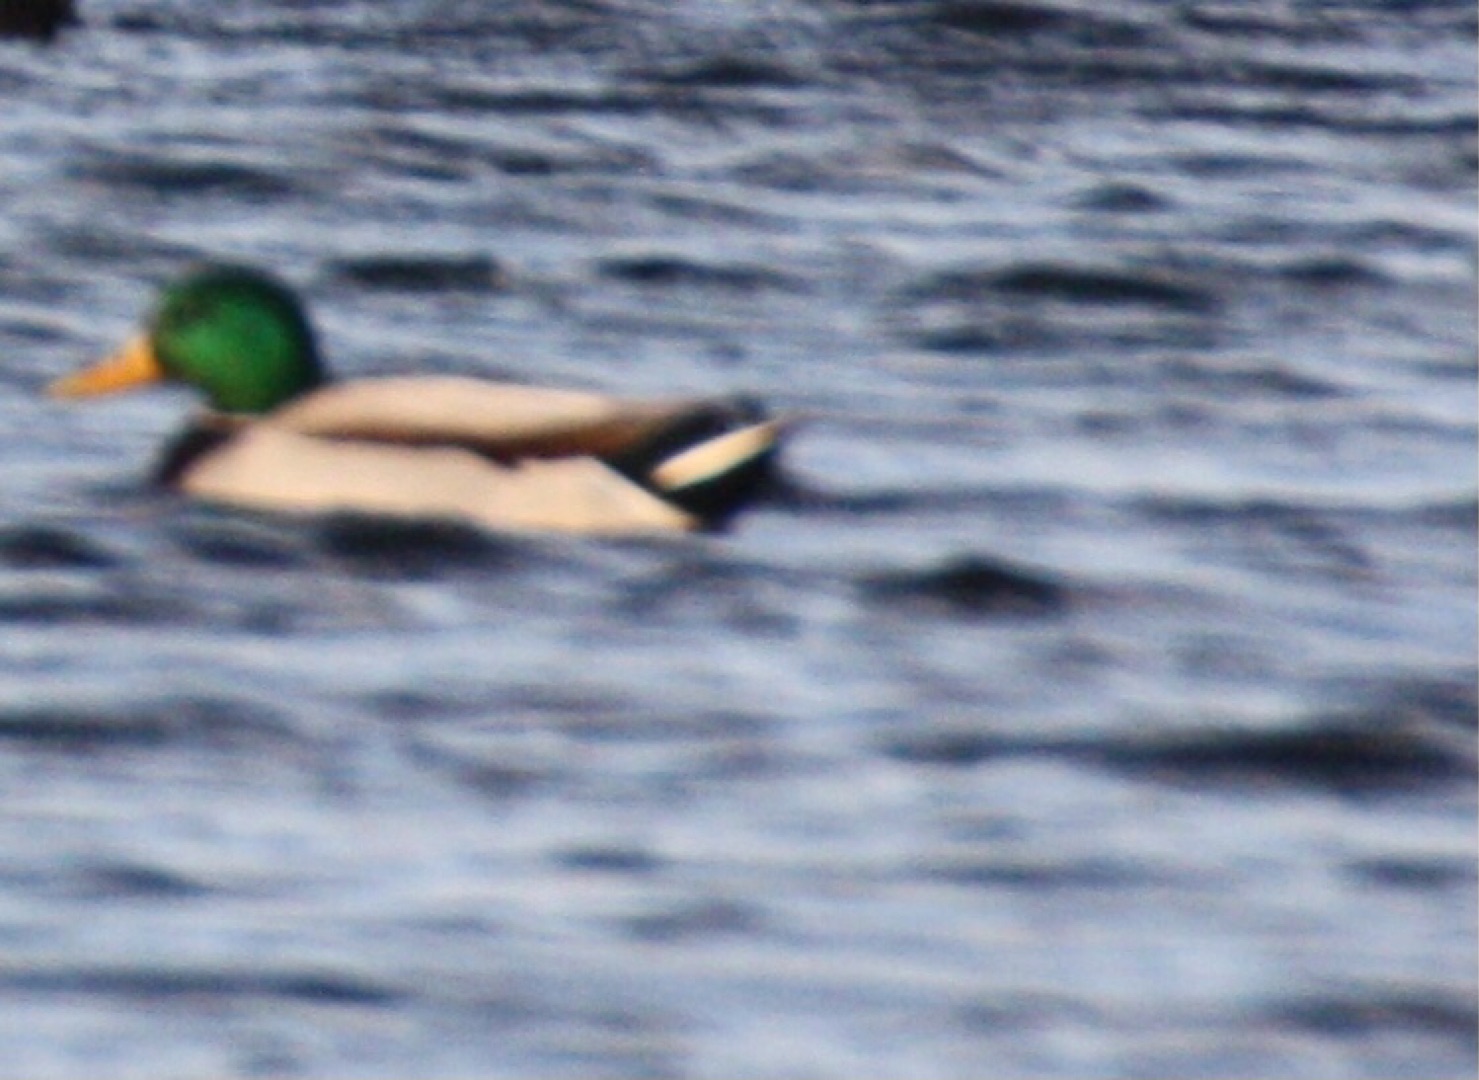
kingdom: Animalia
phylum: Chordata
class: Aves
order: Anseriformes
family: Anatidae
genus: Anas
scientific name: Anas platyrhynchos
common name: Gråand
